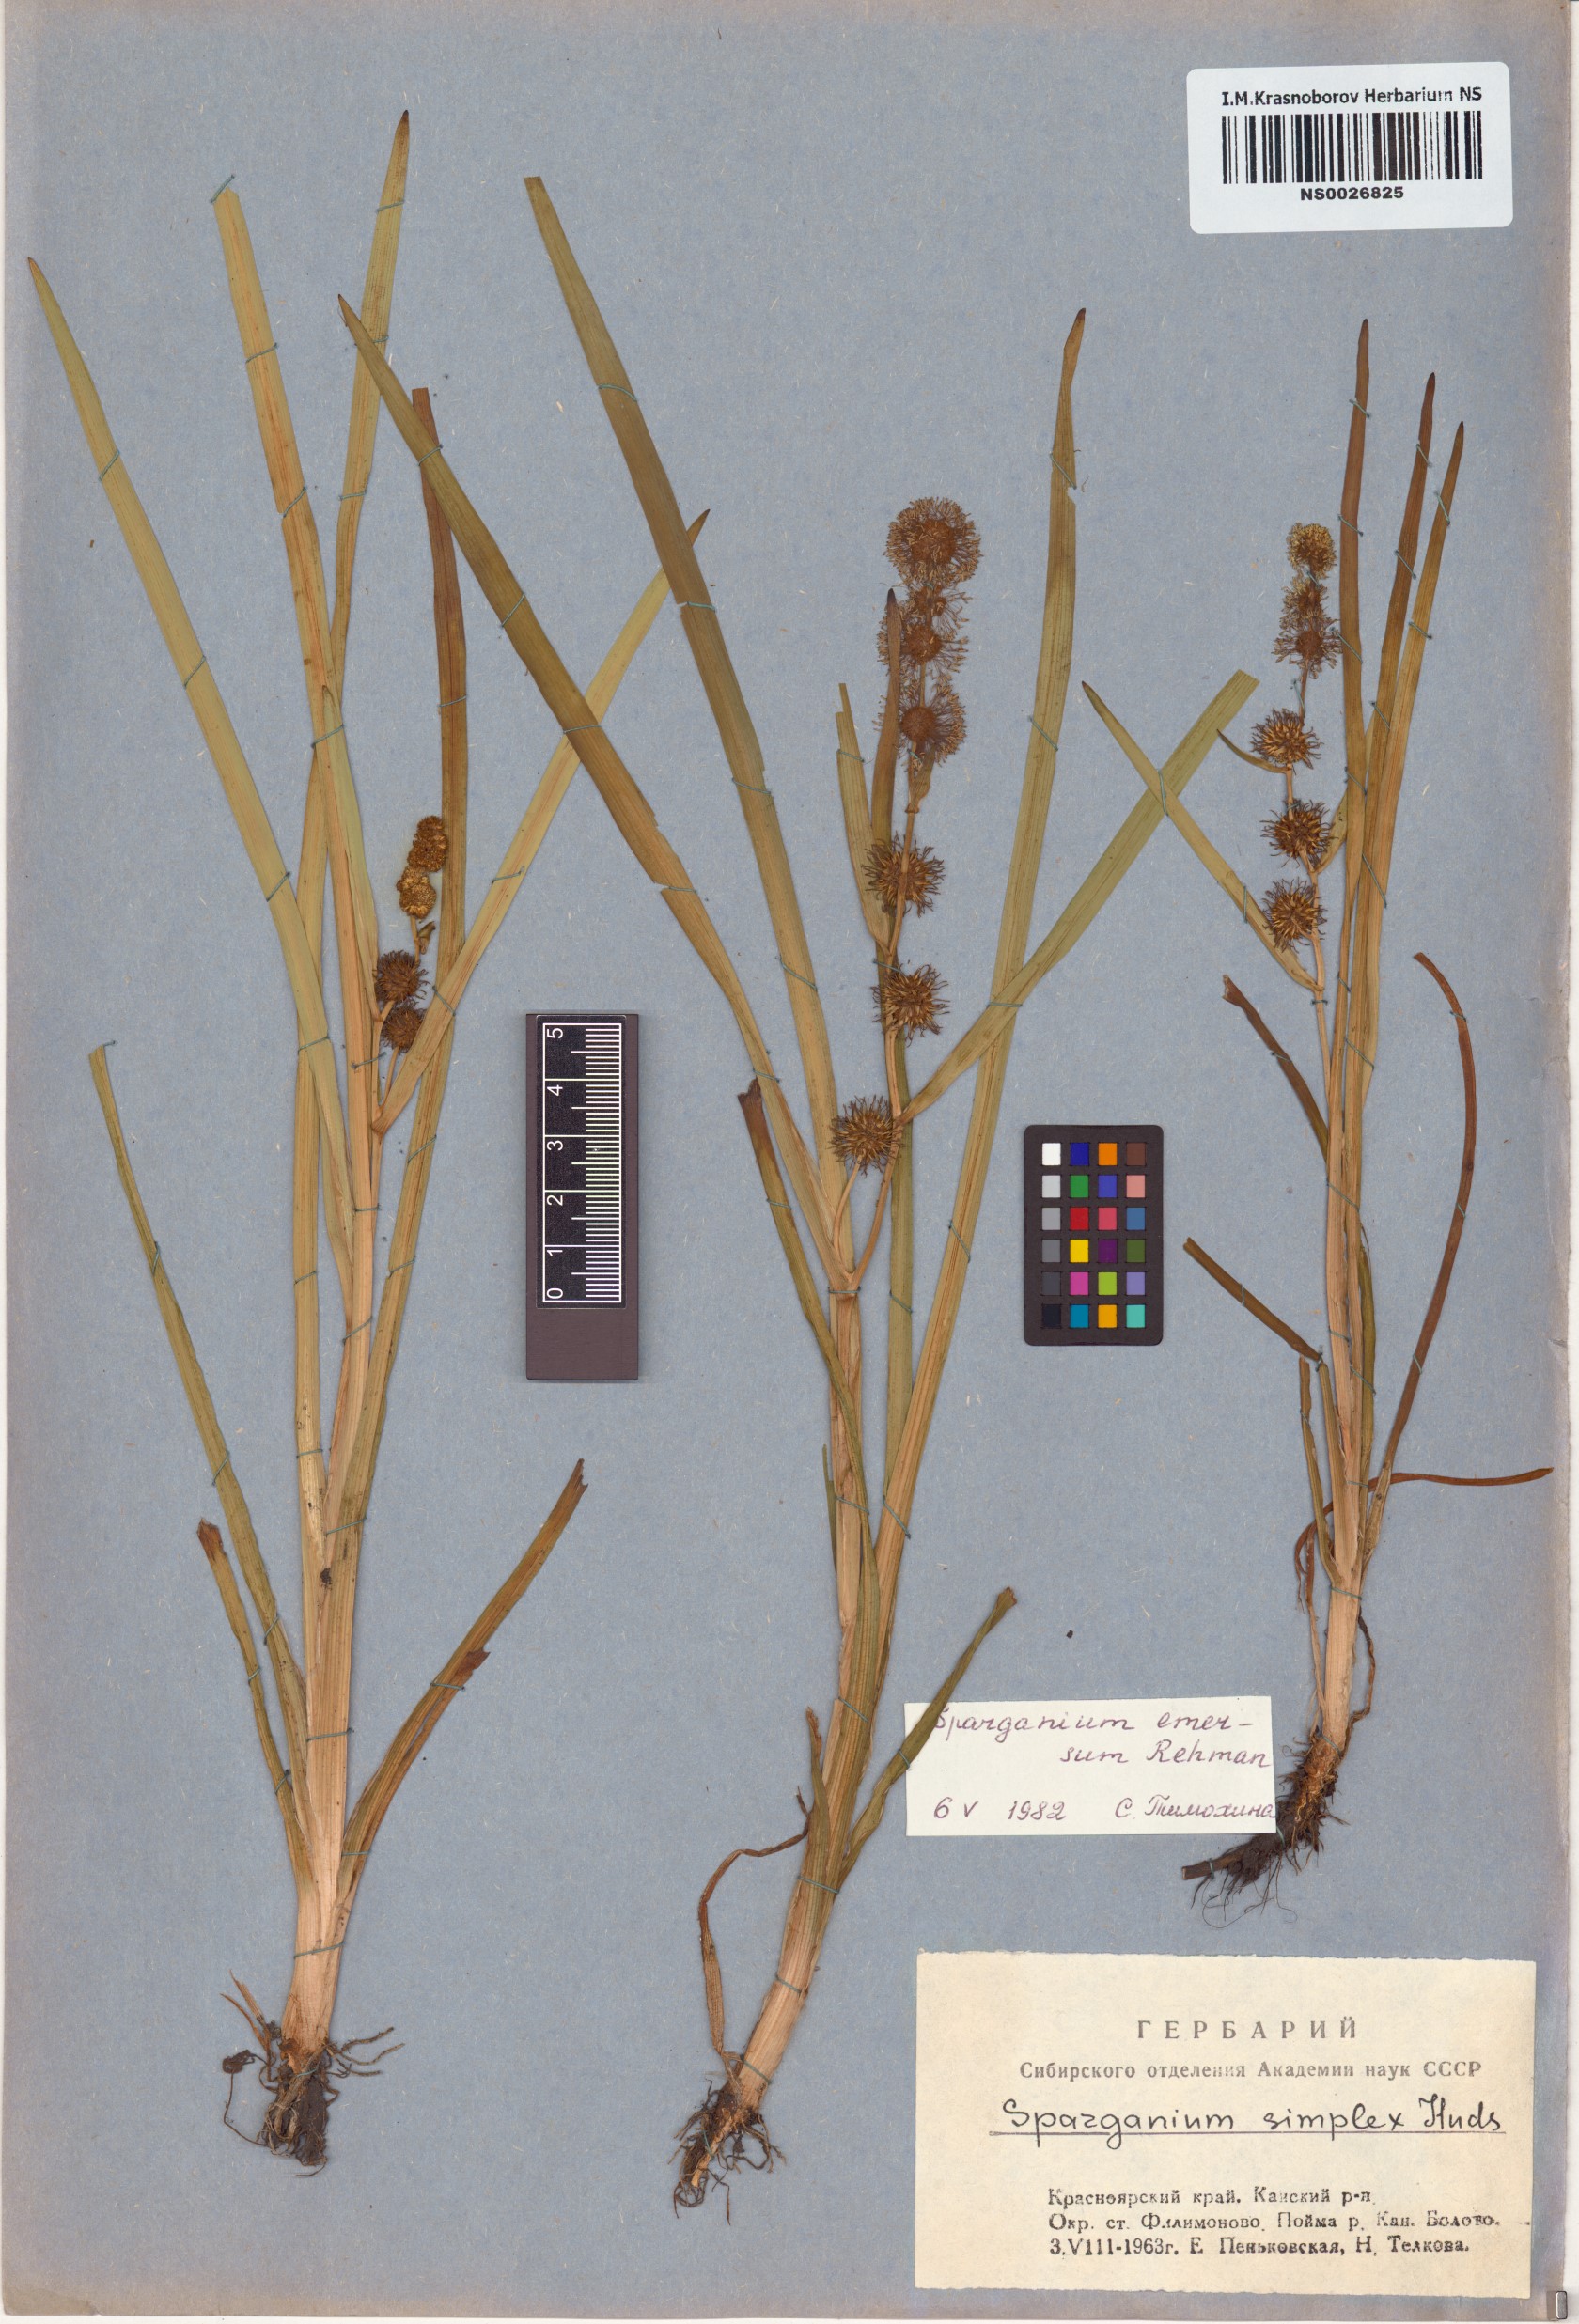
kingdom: Plantae
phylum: Tracheophyta
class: Liliopsida
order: Poales
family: Typhaceae
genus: Sparganium
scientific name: Sparganium emersum
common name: Unbranched bur-reed
